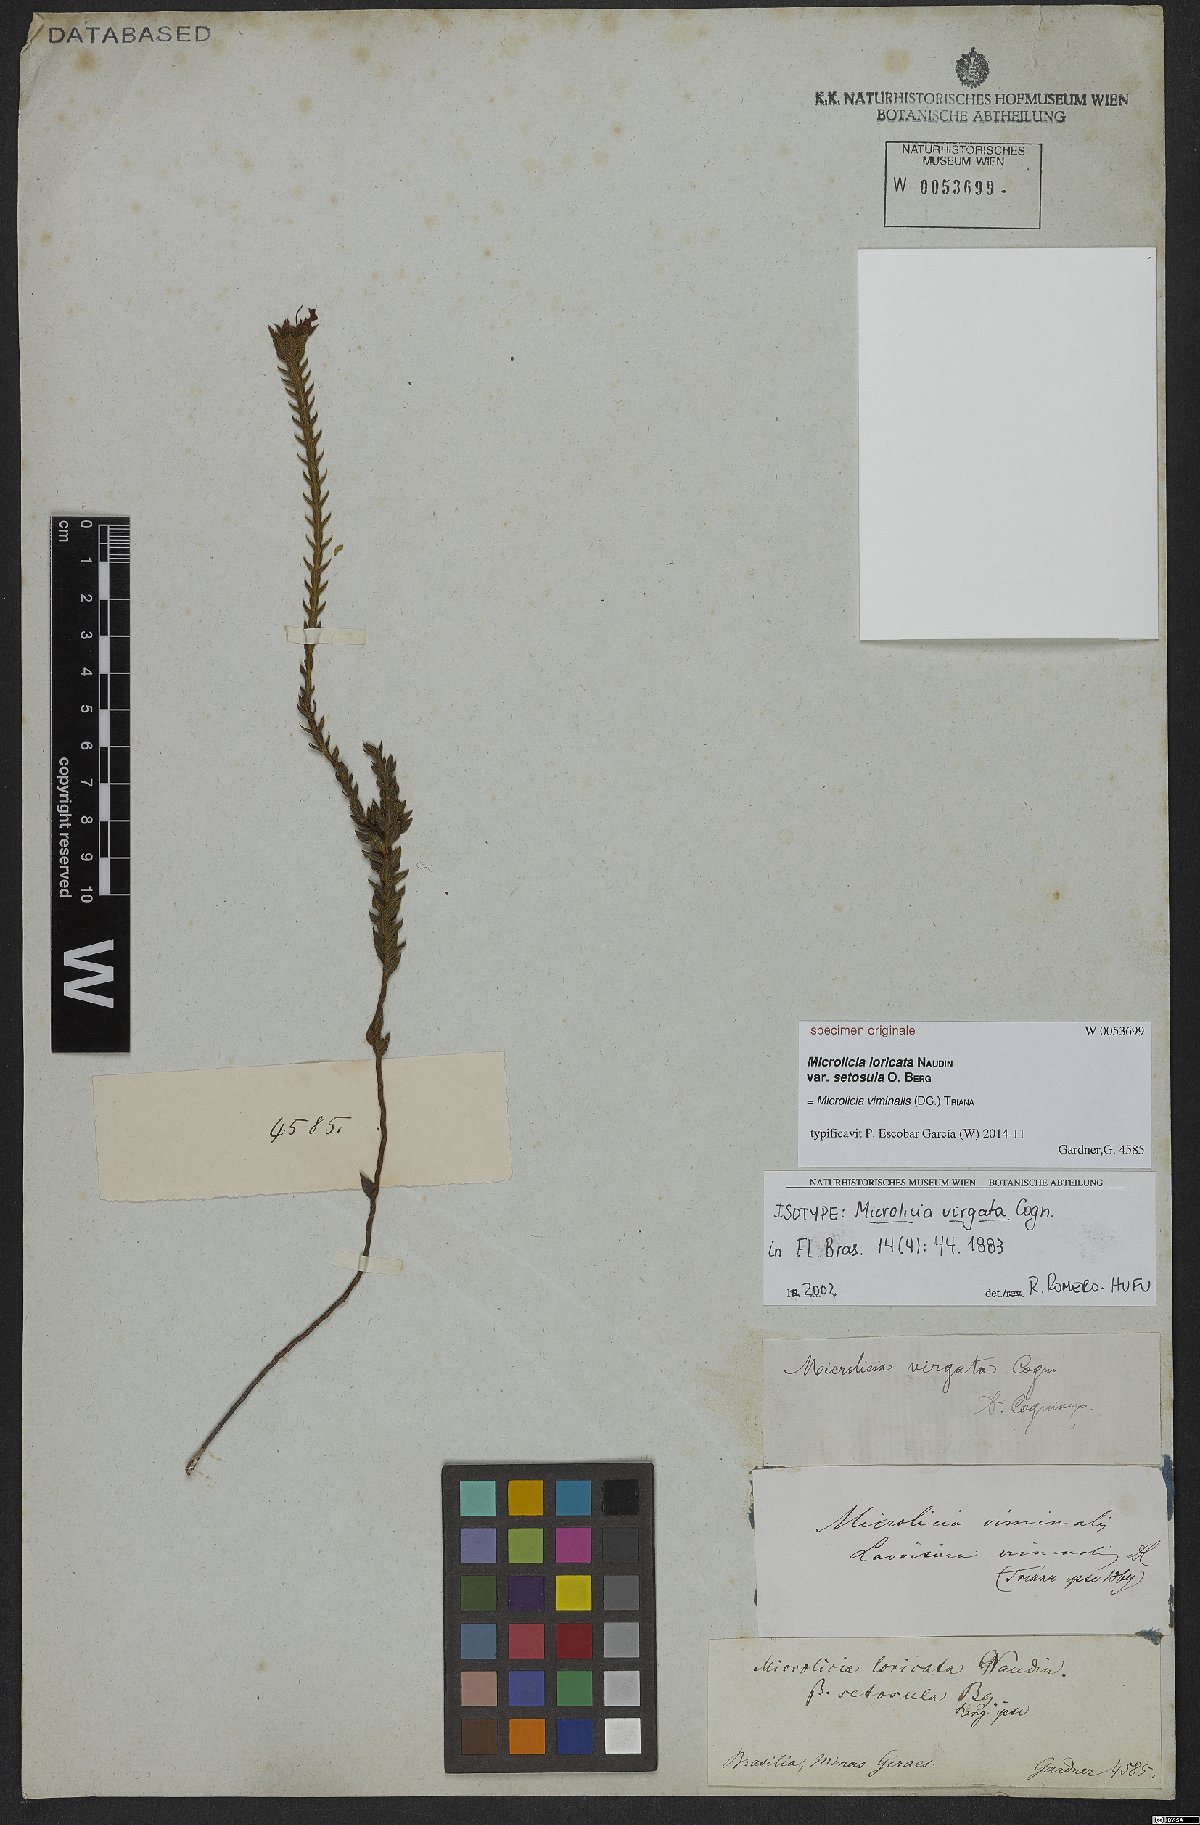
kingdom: Plantae
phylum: Tracheophyta
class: Magnoliopsida
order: Myrtales
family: Melastomataceae
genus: Microlicia
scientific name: Microlicia viminalis
